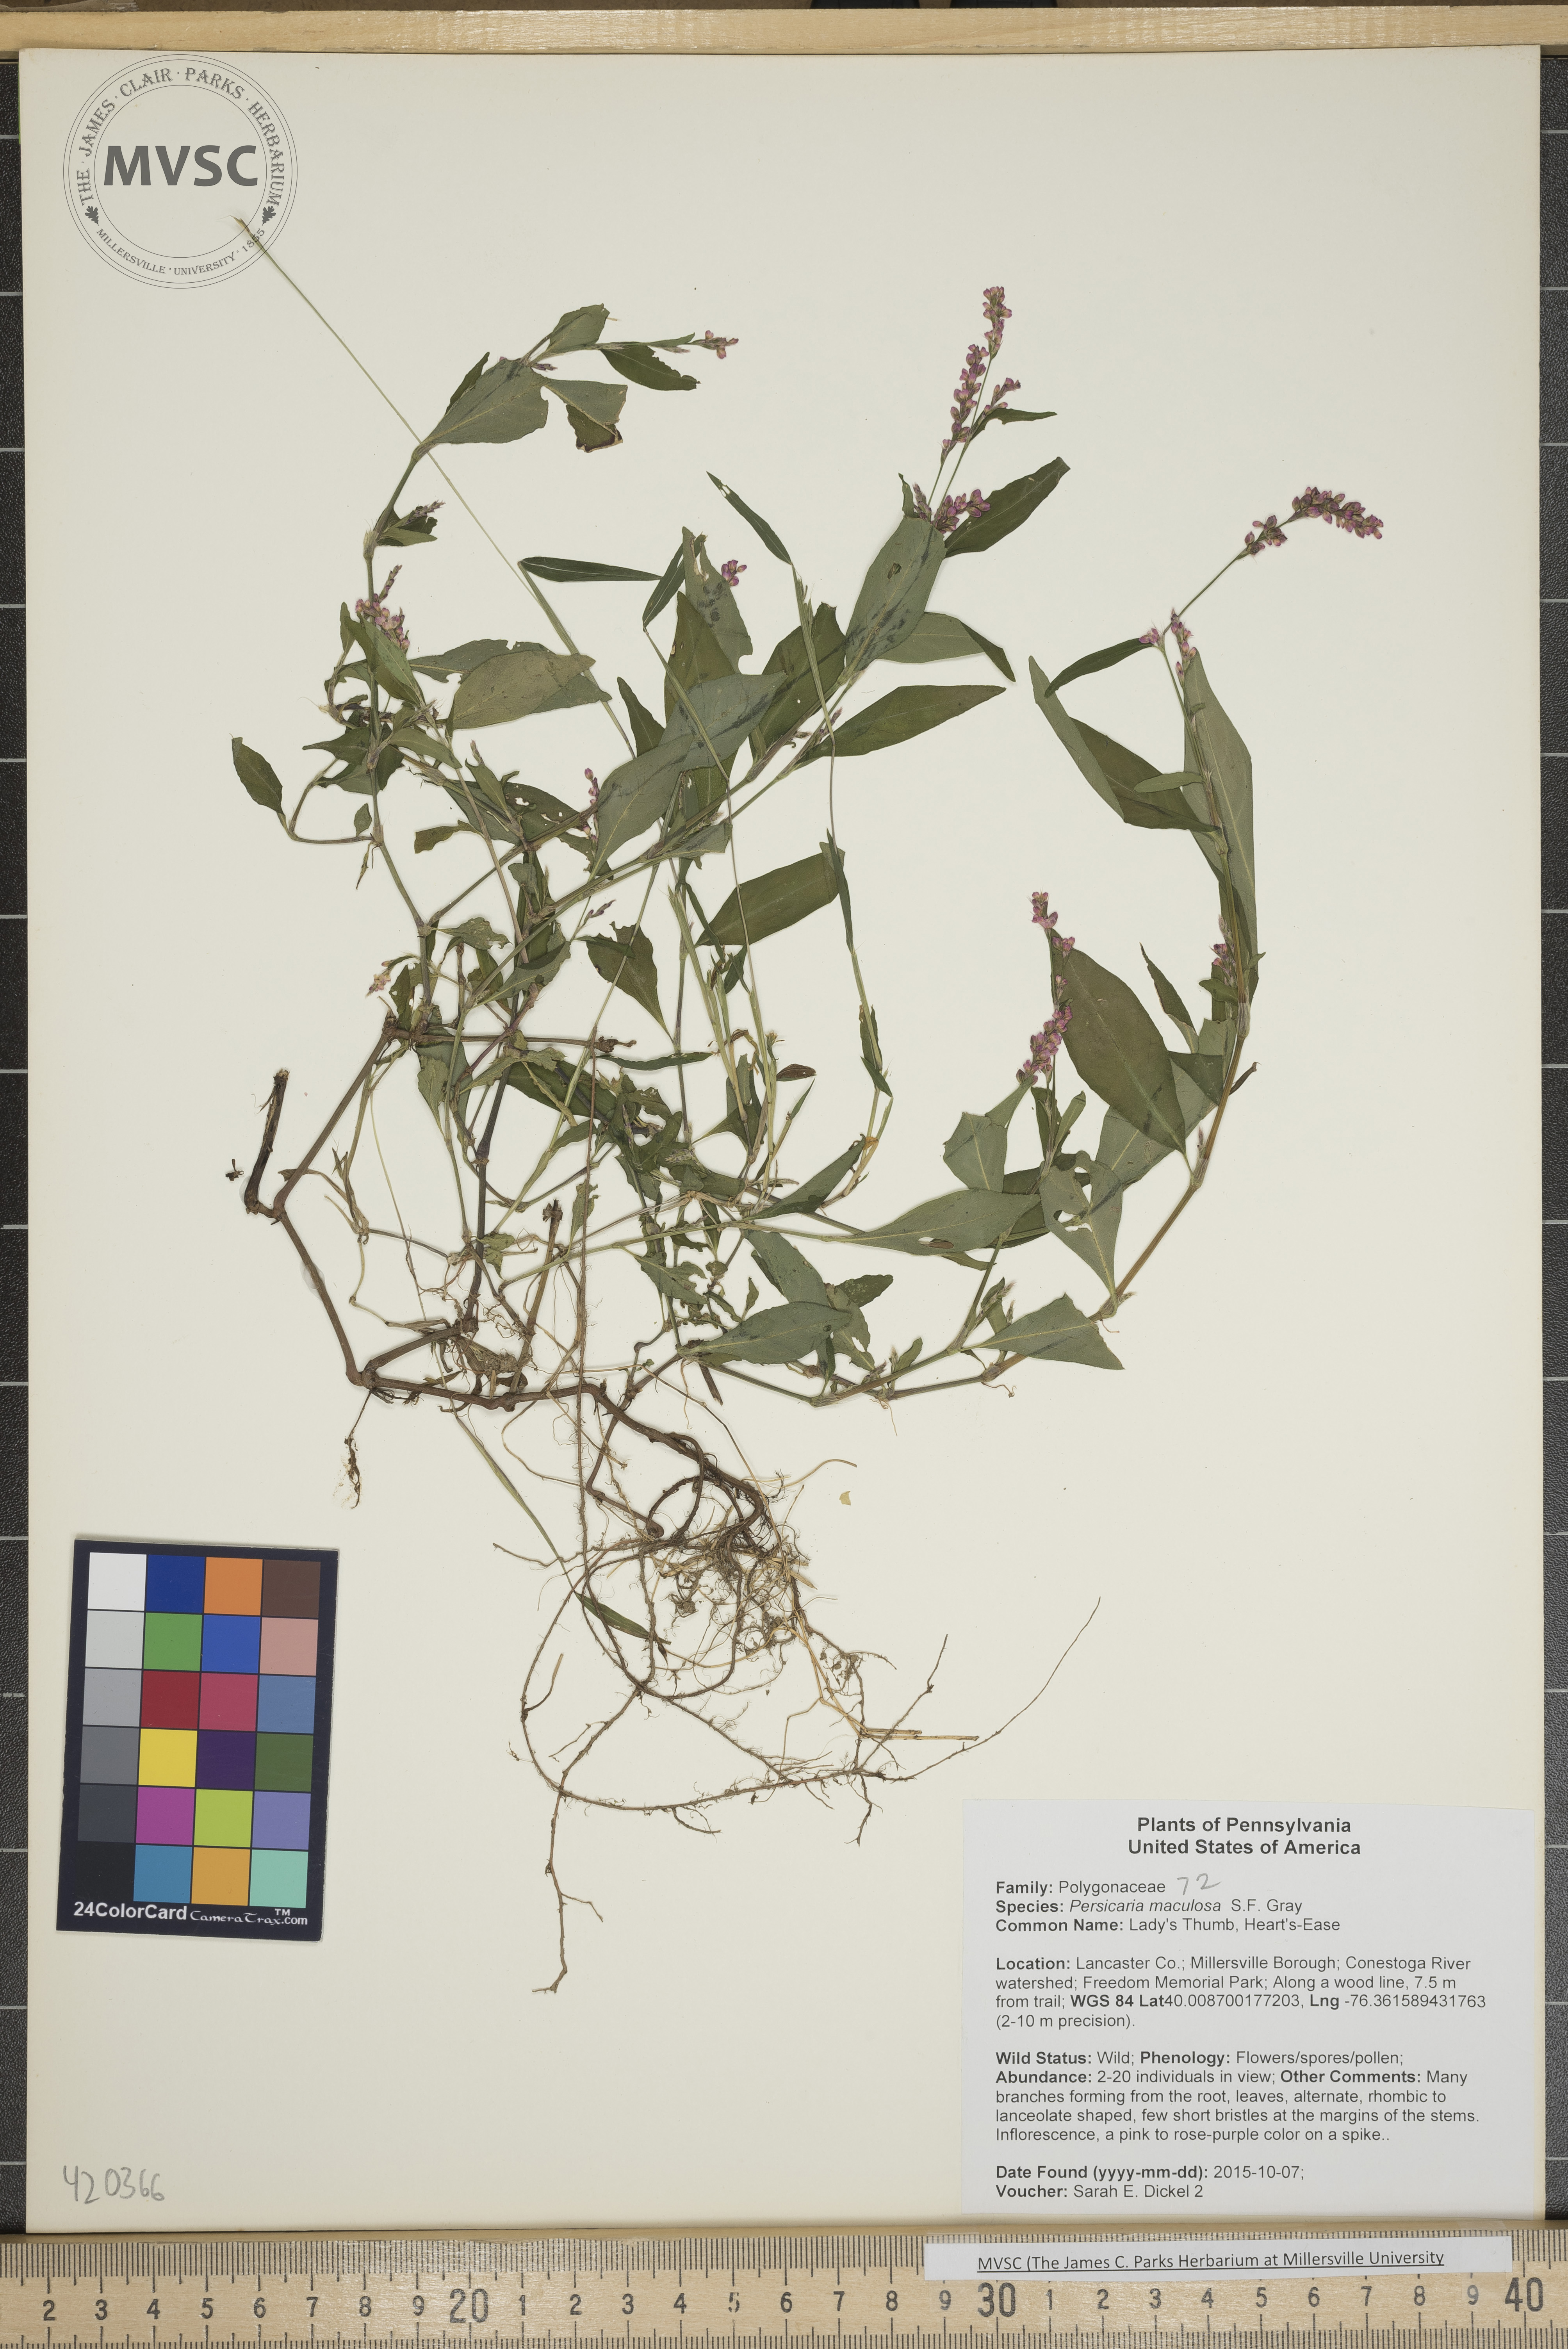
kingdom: Plantae
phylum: Tracheophyta
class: Magnoliopsida
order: Caryophyllales
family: Polygonaceae
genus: Persicaria
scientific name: Persicaria maculosa
